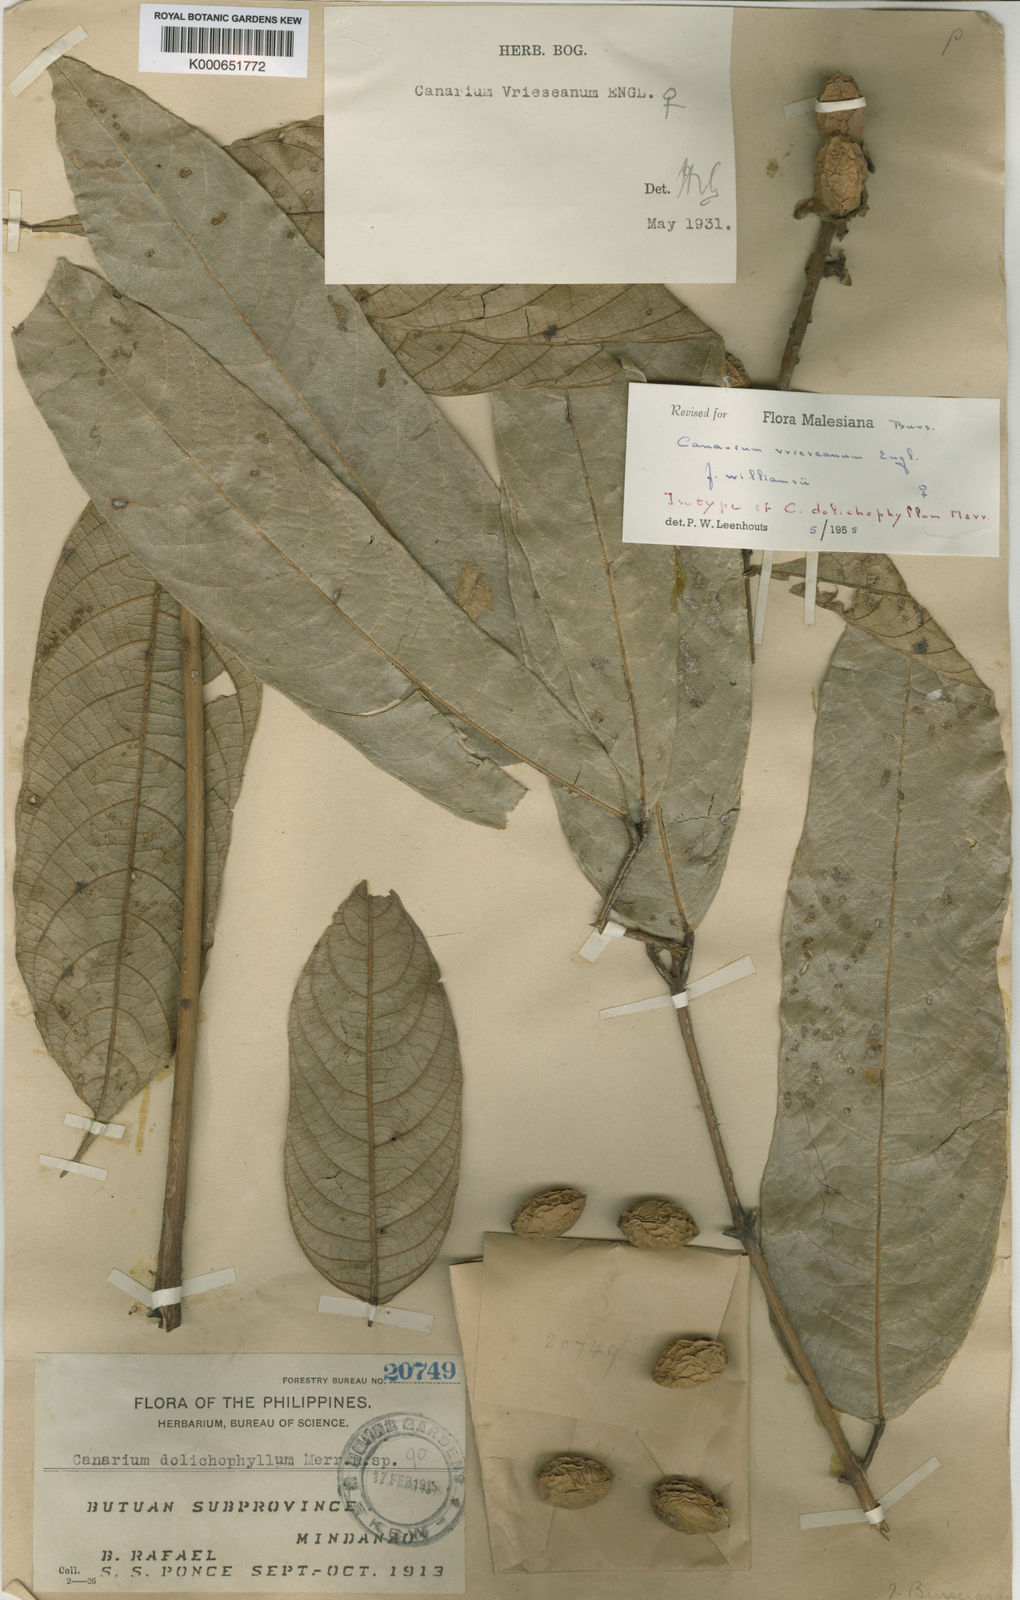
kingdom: Plantae
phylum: Tracheophyta
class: Magnoliopsida
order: Sapindales
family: Burseraceae
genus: Canarium
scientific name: Canarium vrieseanum
